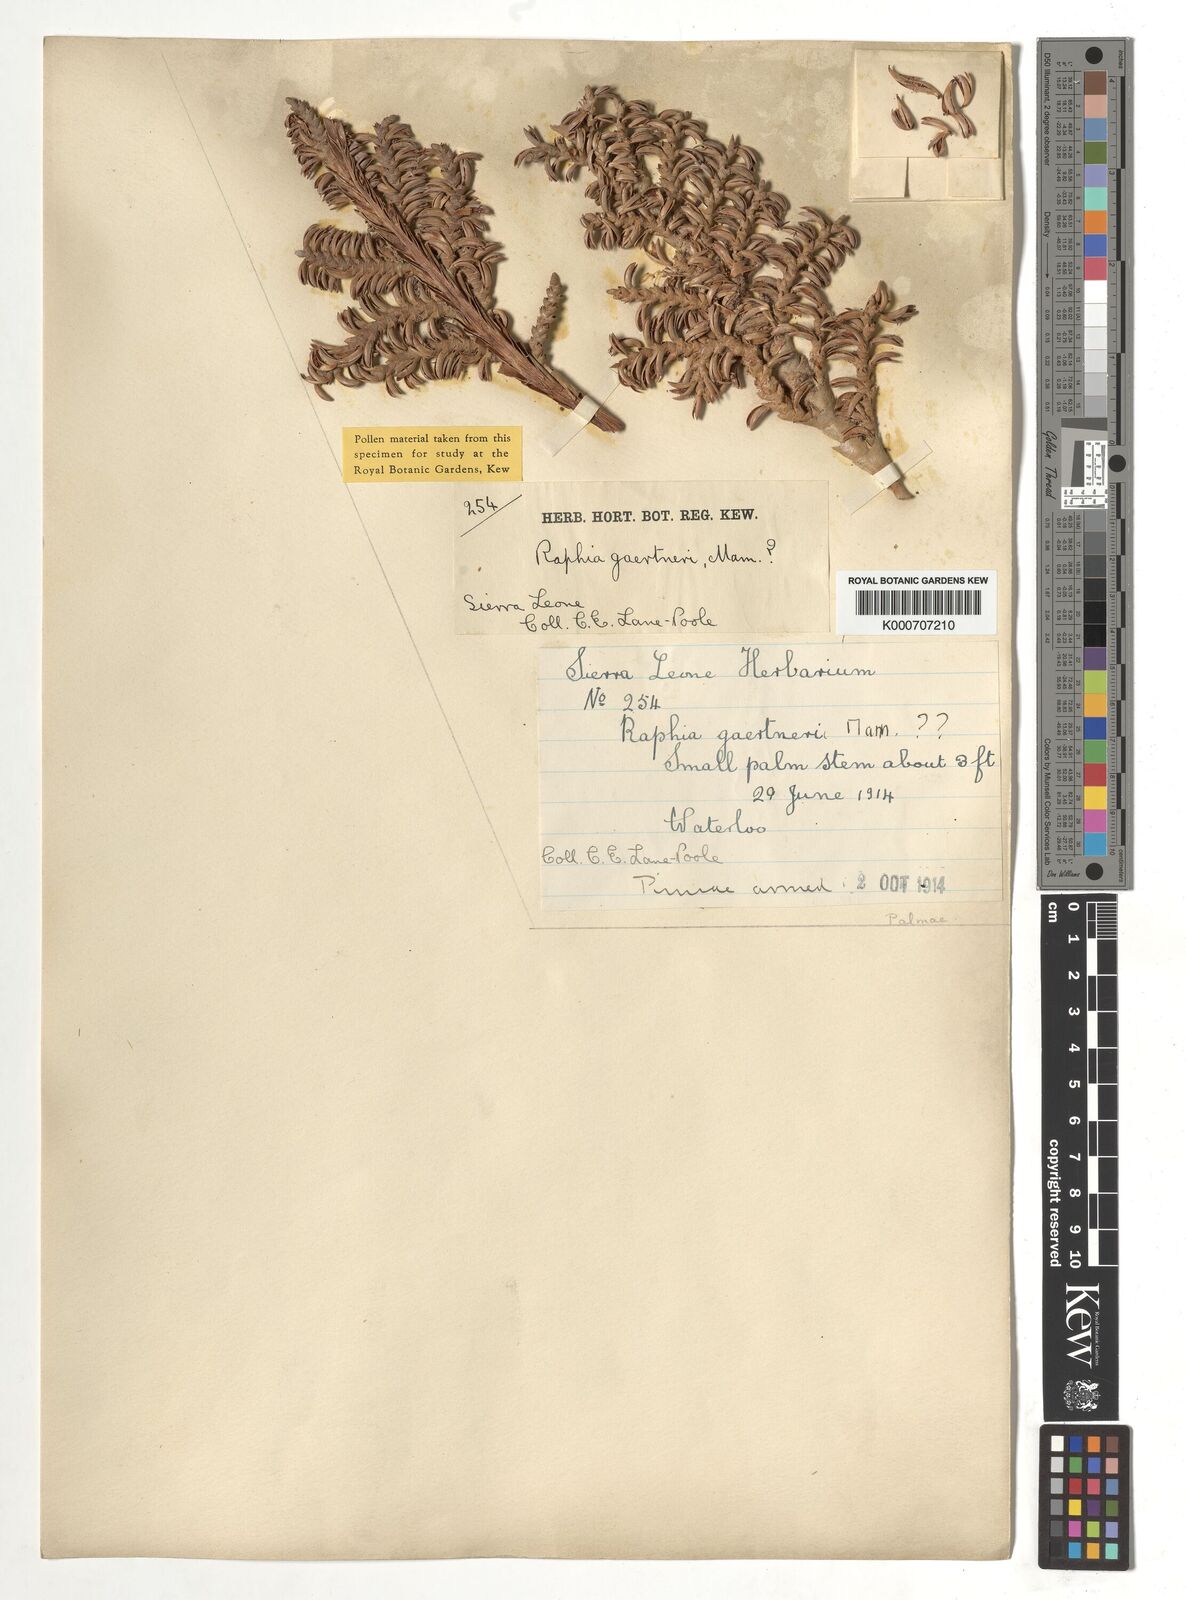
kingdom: Plantae
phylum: Tracheophyta
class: Liliopsida
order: Arecales
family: Arecaceae
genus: Raphia
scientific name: Raphia
